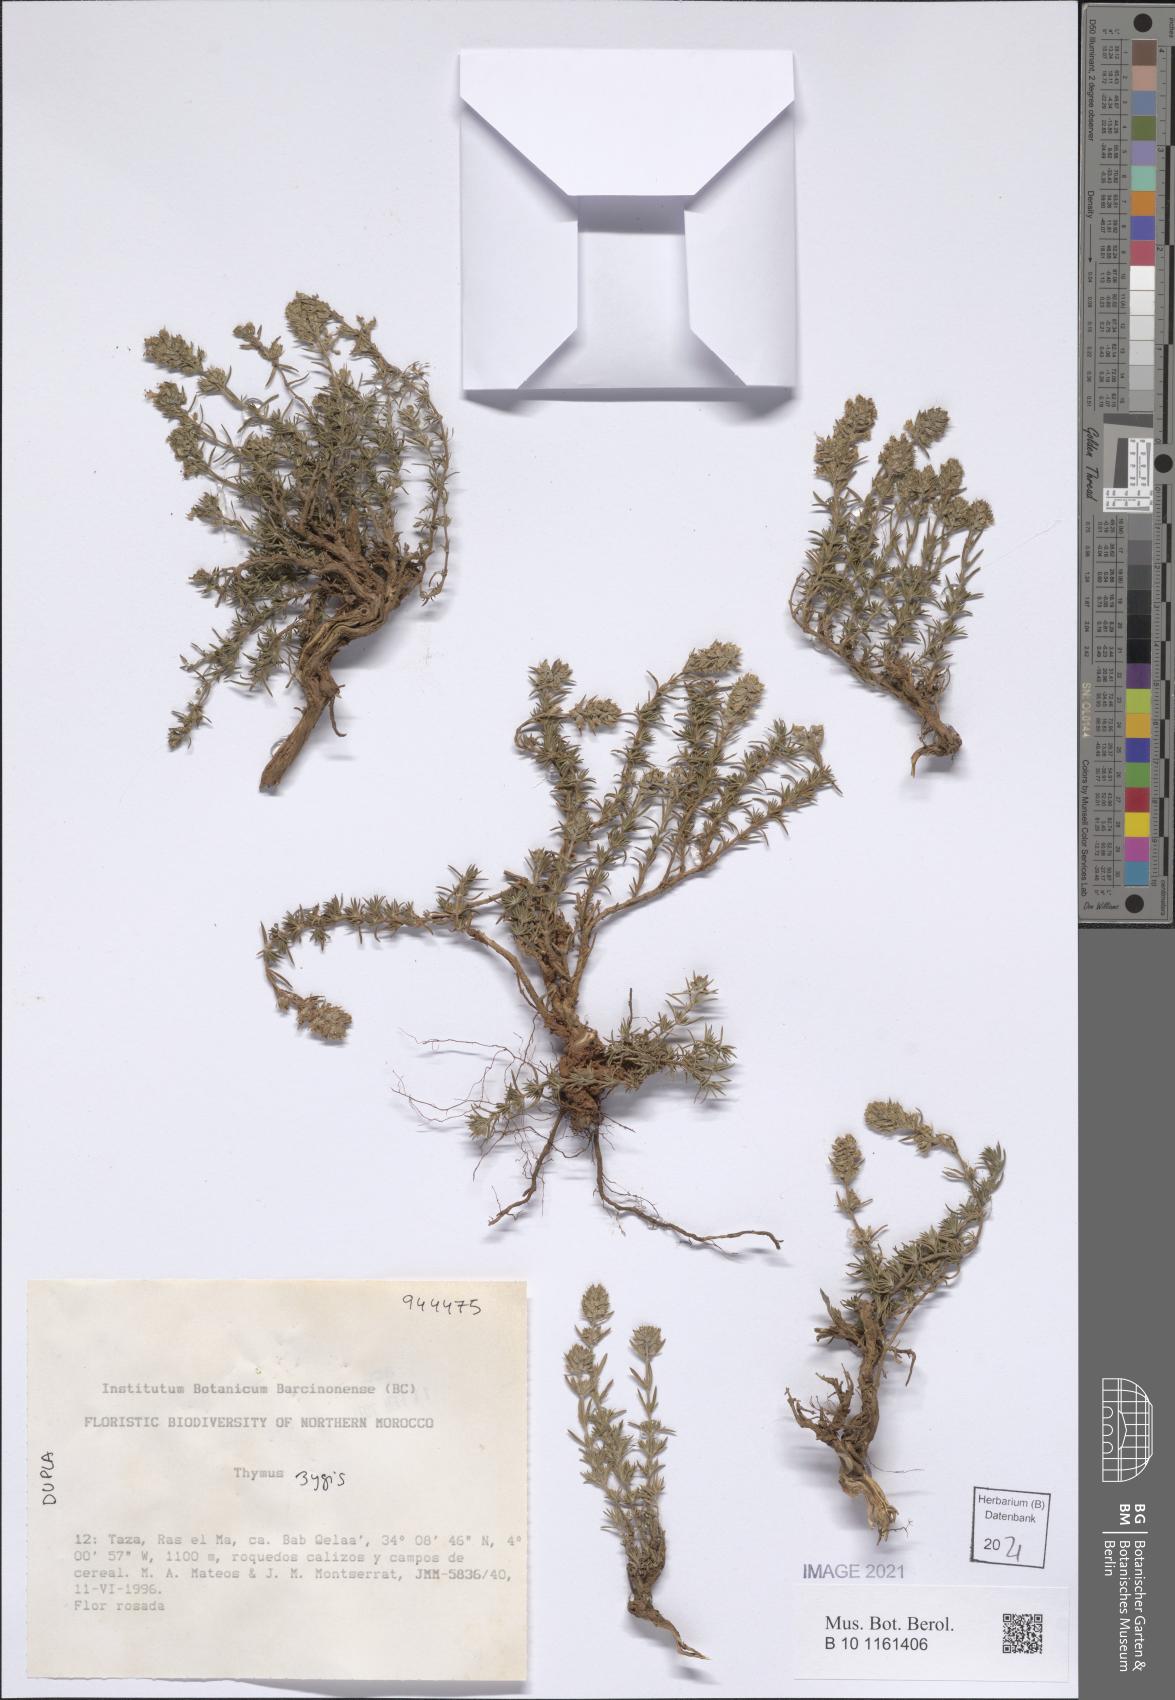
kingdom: Plantae
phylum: Tracheophyta
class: Magnoliopsida
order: Lamiales
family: Lamiaceae
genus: Thymus
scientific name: Thymus zygis
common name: White thyme
